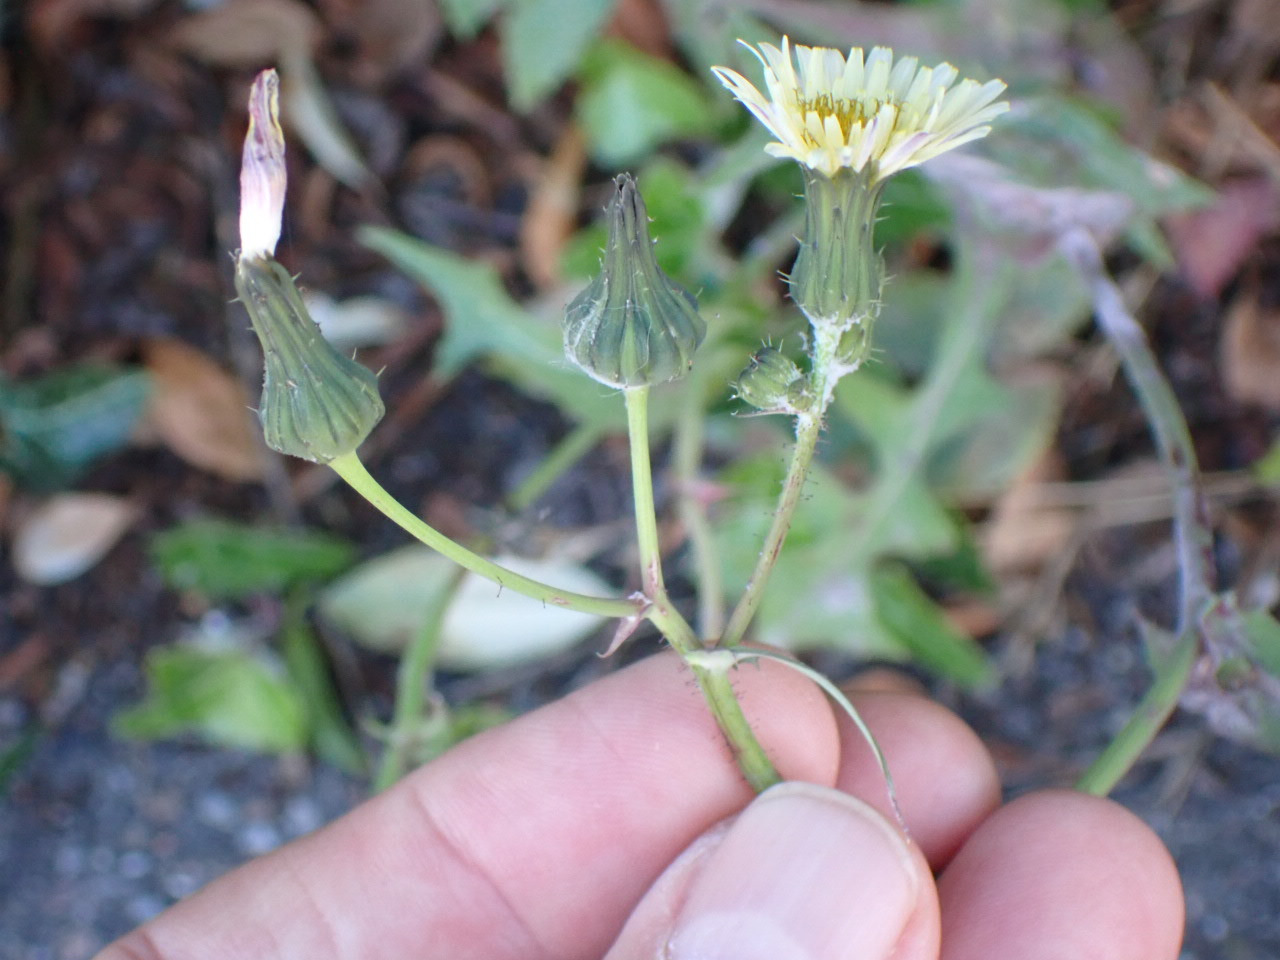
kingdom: Plantae
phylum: Tracheophyta
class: Magnoliopsida
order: Asterales
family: Asteraceae
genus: Sonchus
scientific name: Sonchus oleraceus
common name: Almindelig svinemælk
